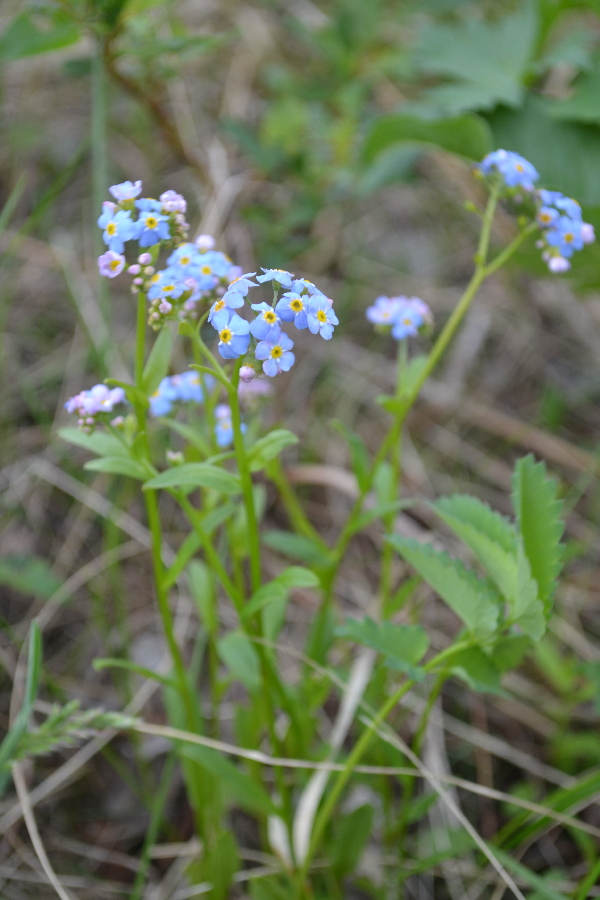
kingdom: Plantae
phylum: Tracheophyta
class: Magnoliopsida
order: Boraginales
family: Boraginaceae
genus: Myosotis
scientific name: Myosotis asiatica
